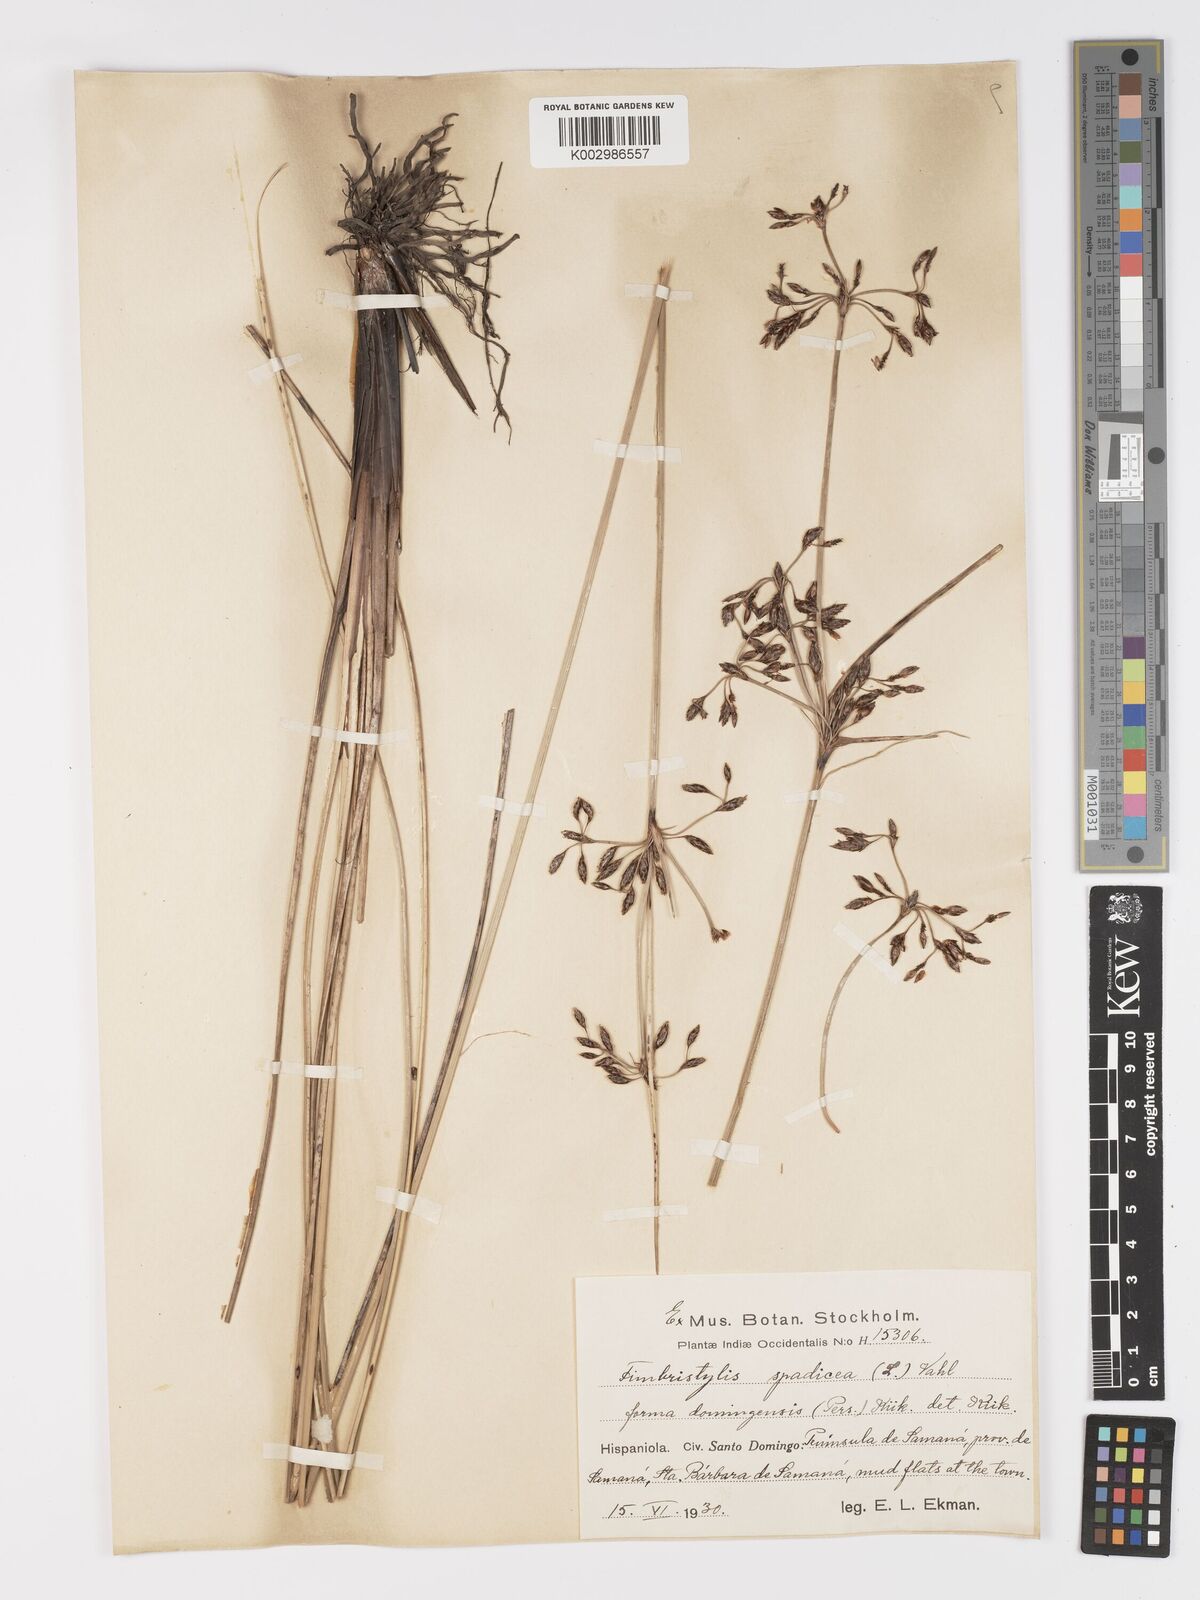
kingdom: Plantae
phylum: Tracheophyta
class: Liliopsida
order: Poales
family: Cyperaceae
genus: Fimbristylis
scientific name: Fimbristylis spadicea
